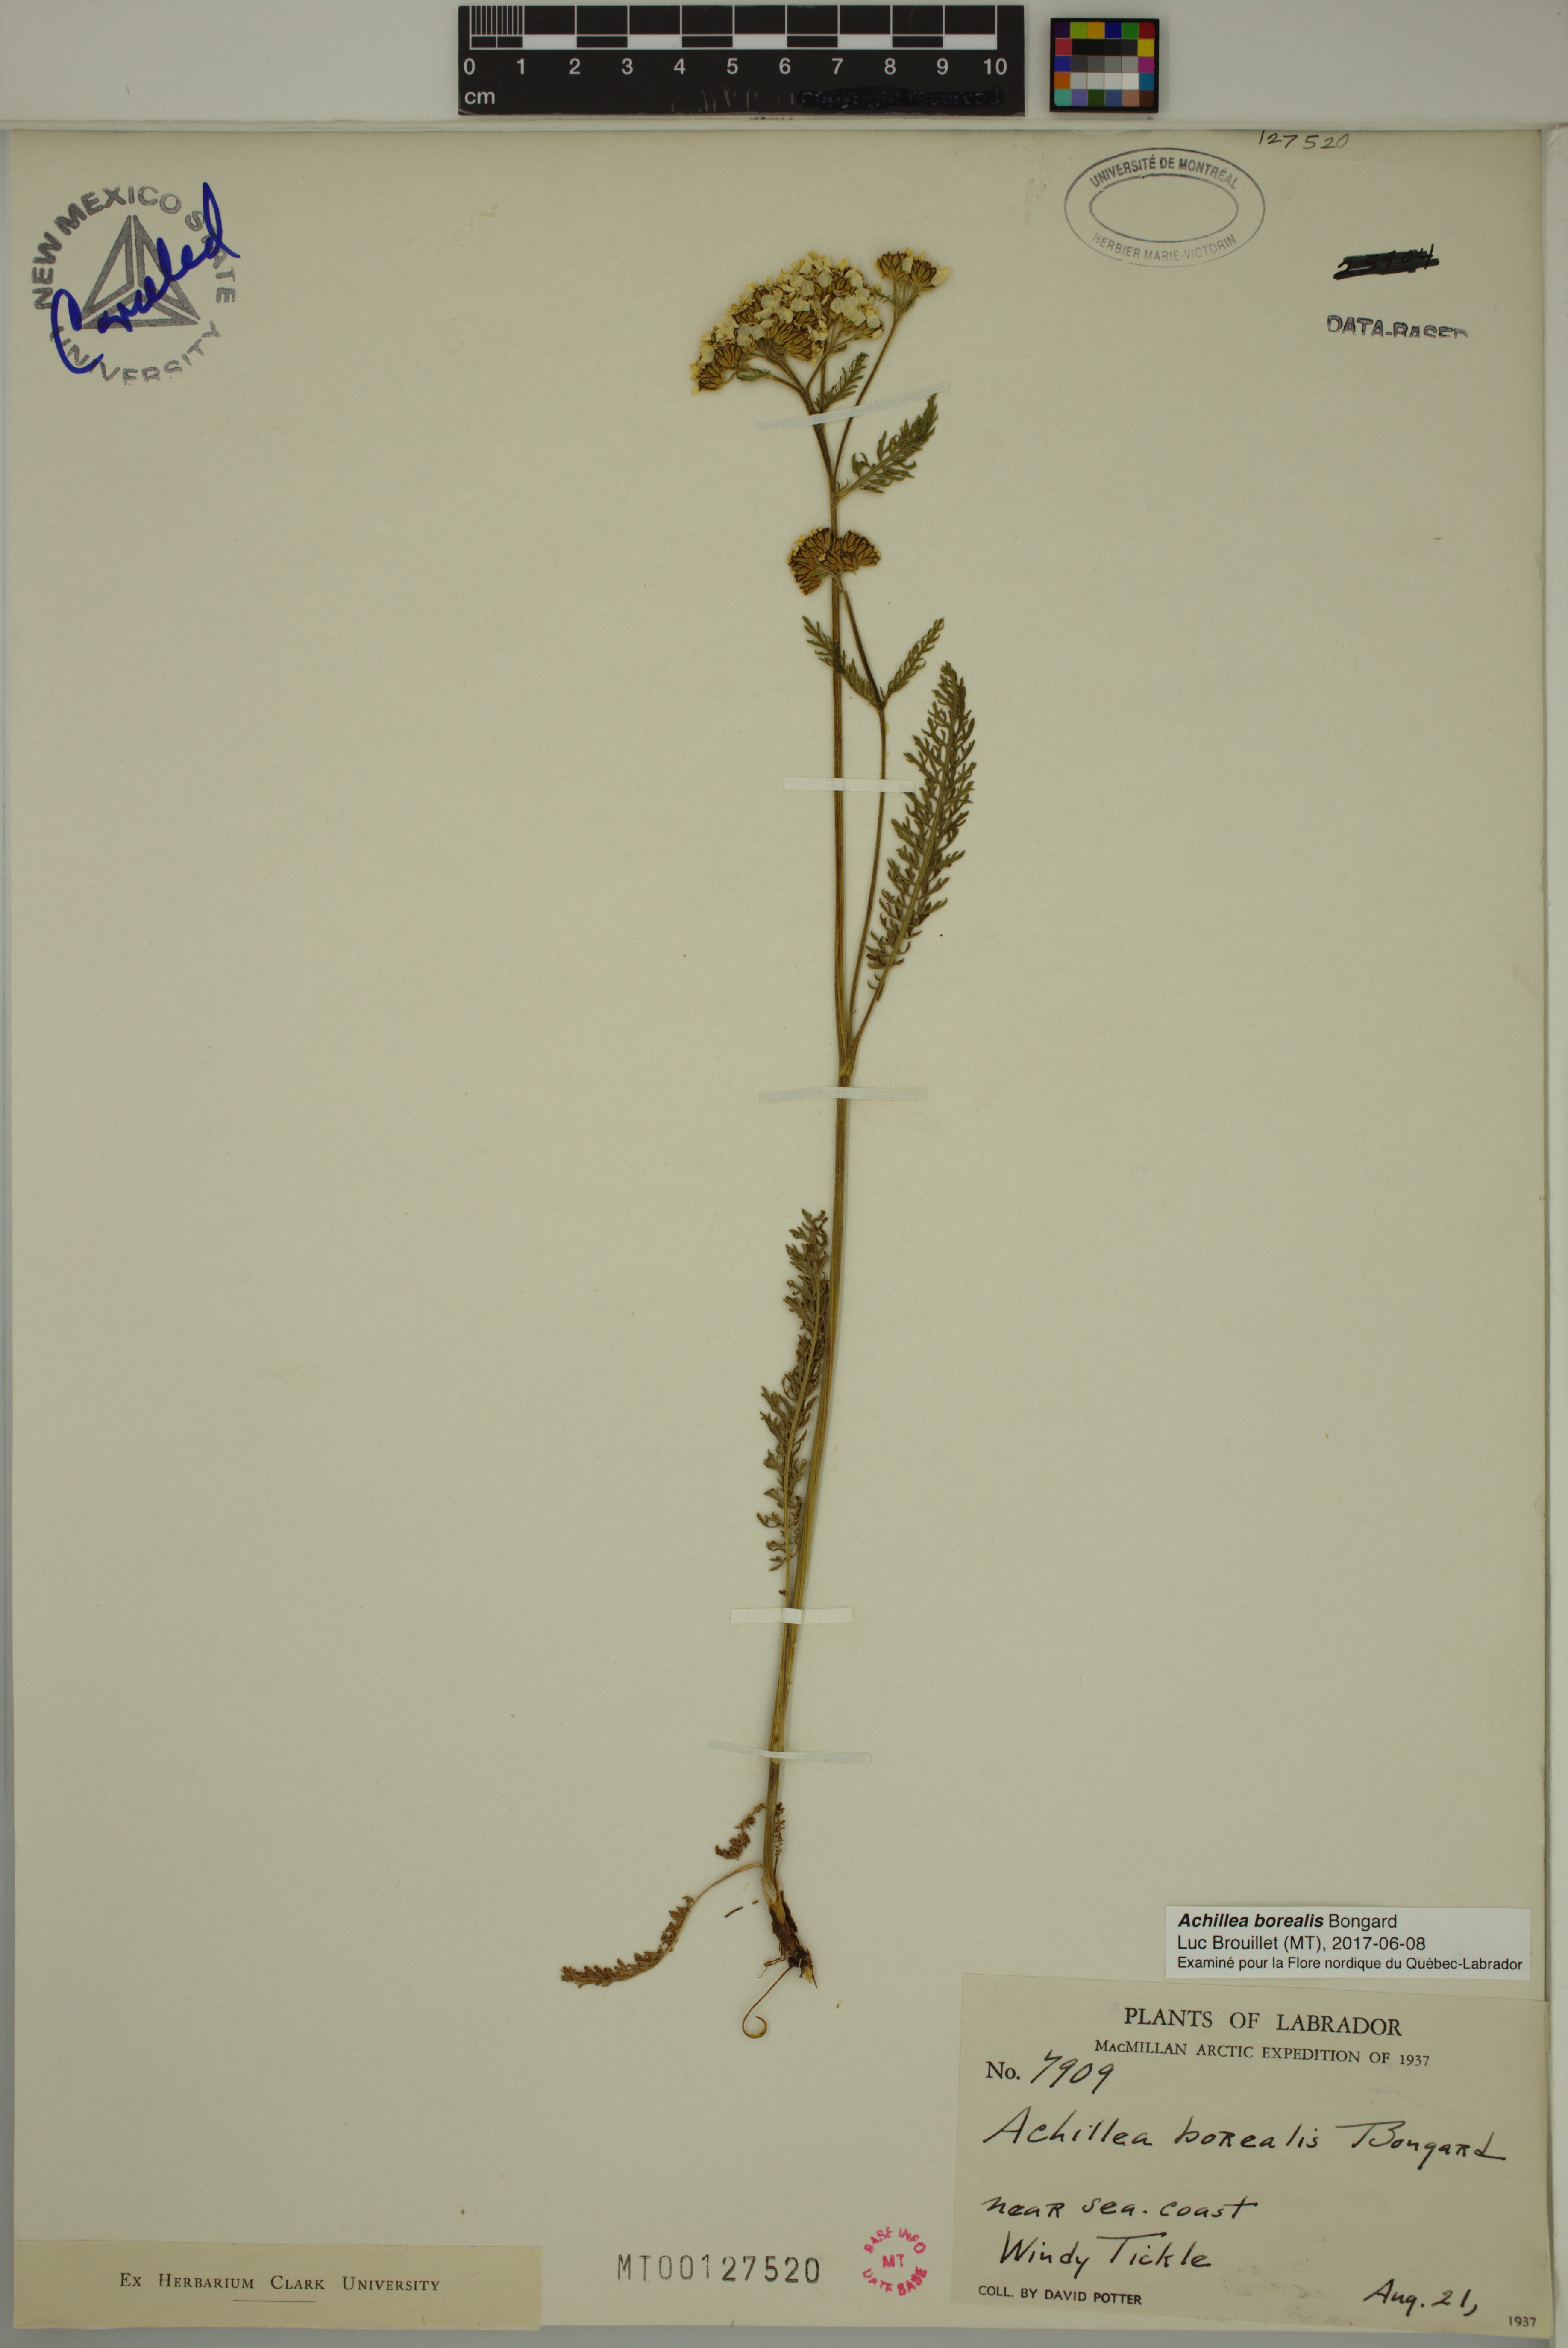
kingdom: Plantae
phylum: Tracheophyta
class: Magnoliopsida
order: Asterales
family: Asteraceae
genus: Achillea
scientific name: Achillea millefolium
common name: Yarrow
